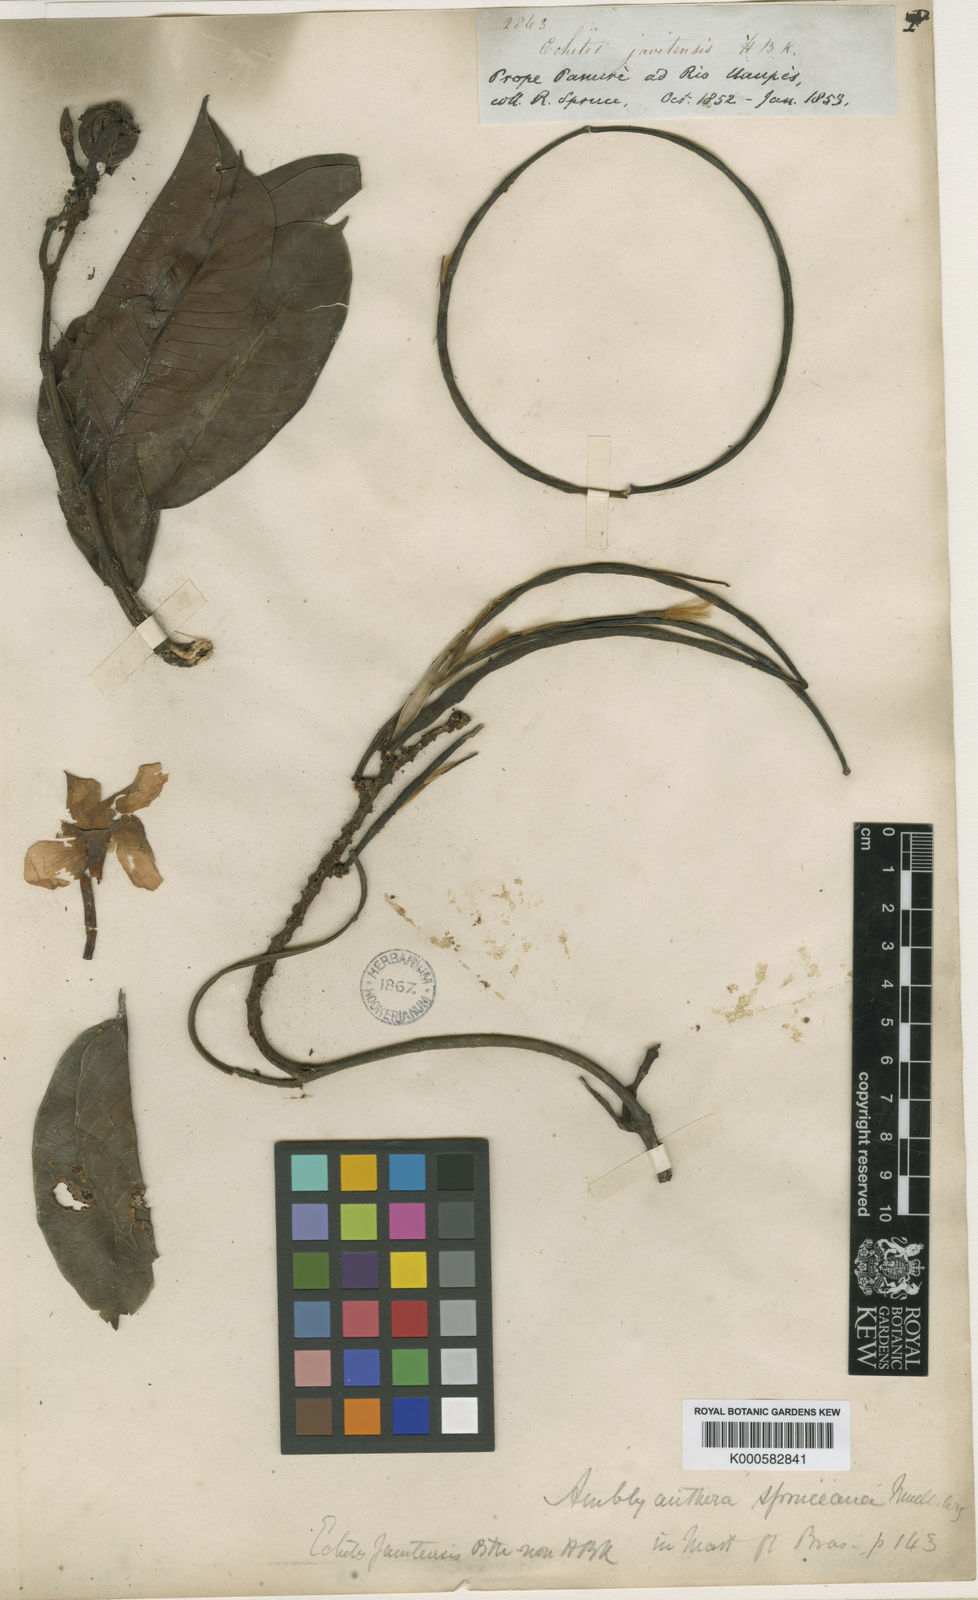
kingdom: Plantae
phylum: Tracheophyta
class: Magnoliopsida
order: Gentianales
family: Apocynaceae
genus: Mandevilla
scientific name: Mandevilla
